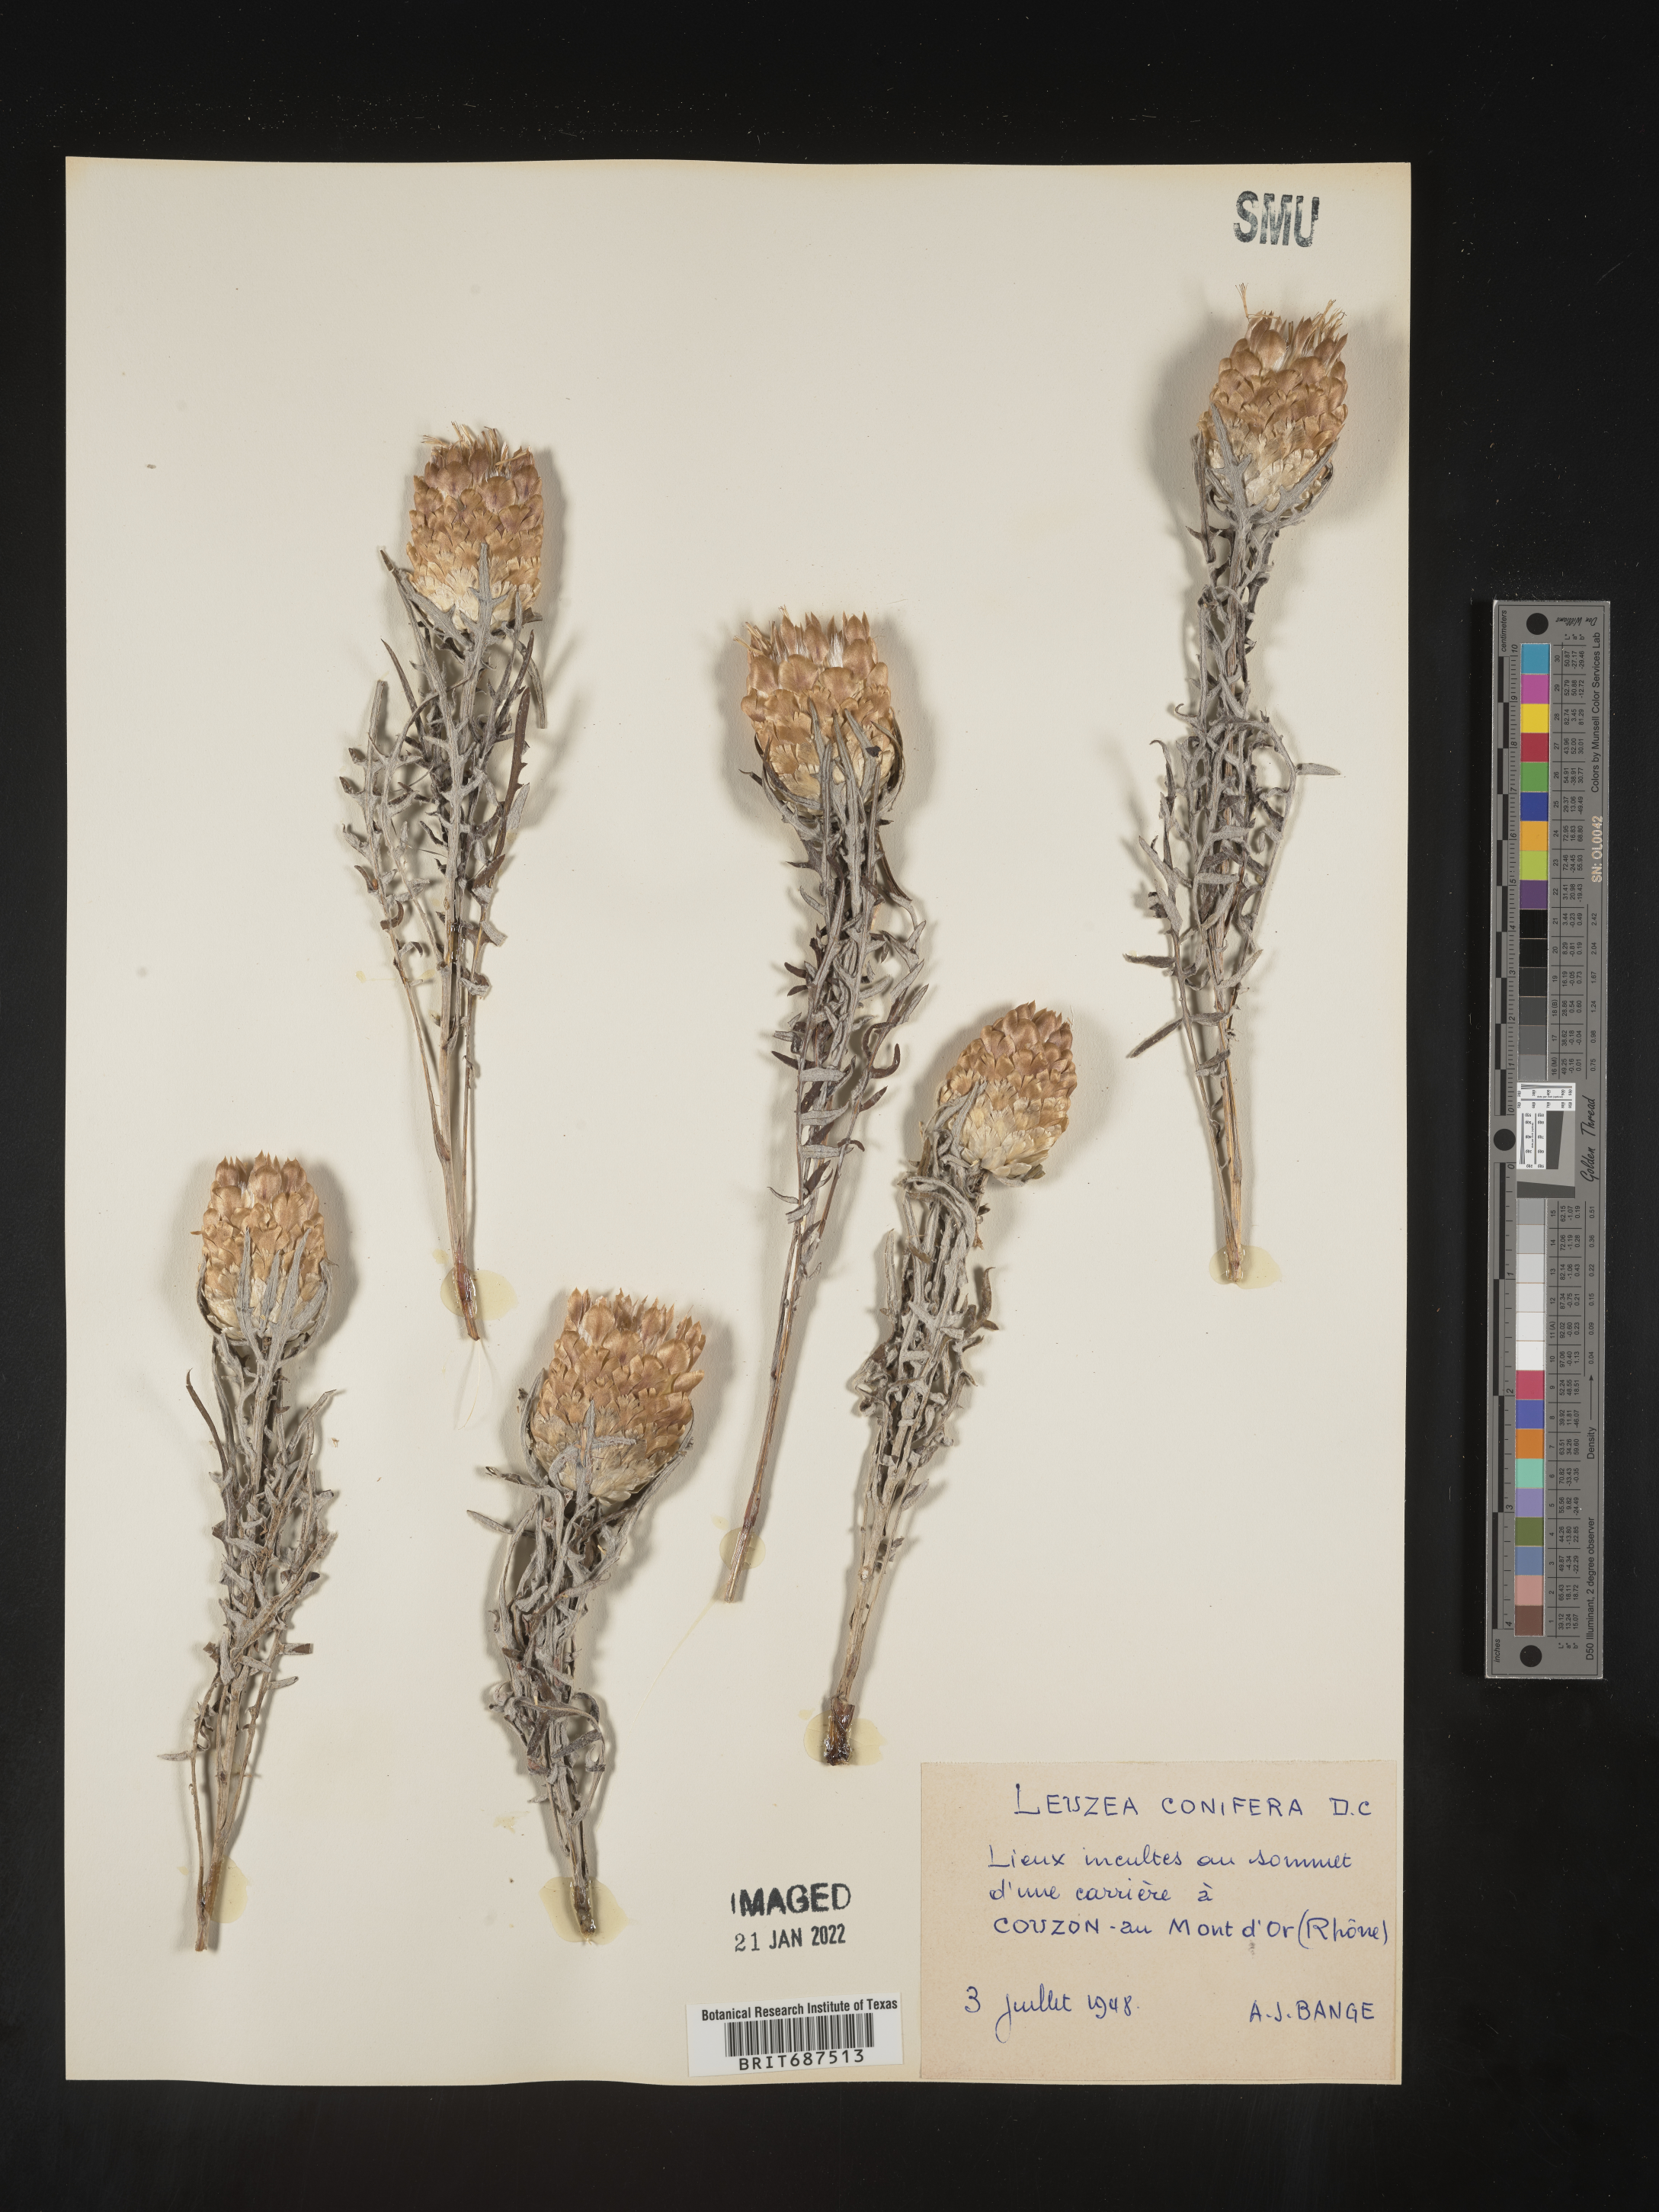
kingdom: Plantae
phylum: Tracheophyta
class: Magnoliopsida
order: Asterales
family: Asteraceae
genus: Centaurea
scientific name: Centaurea
